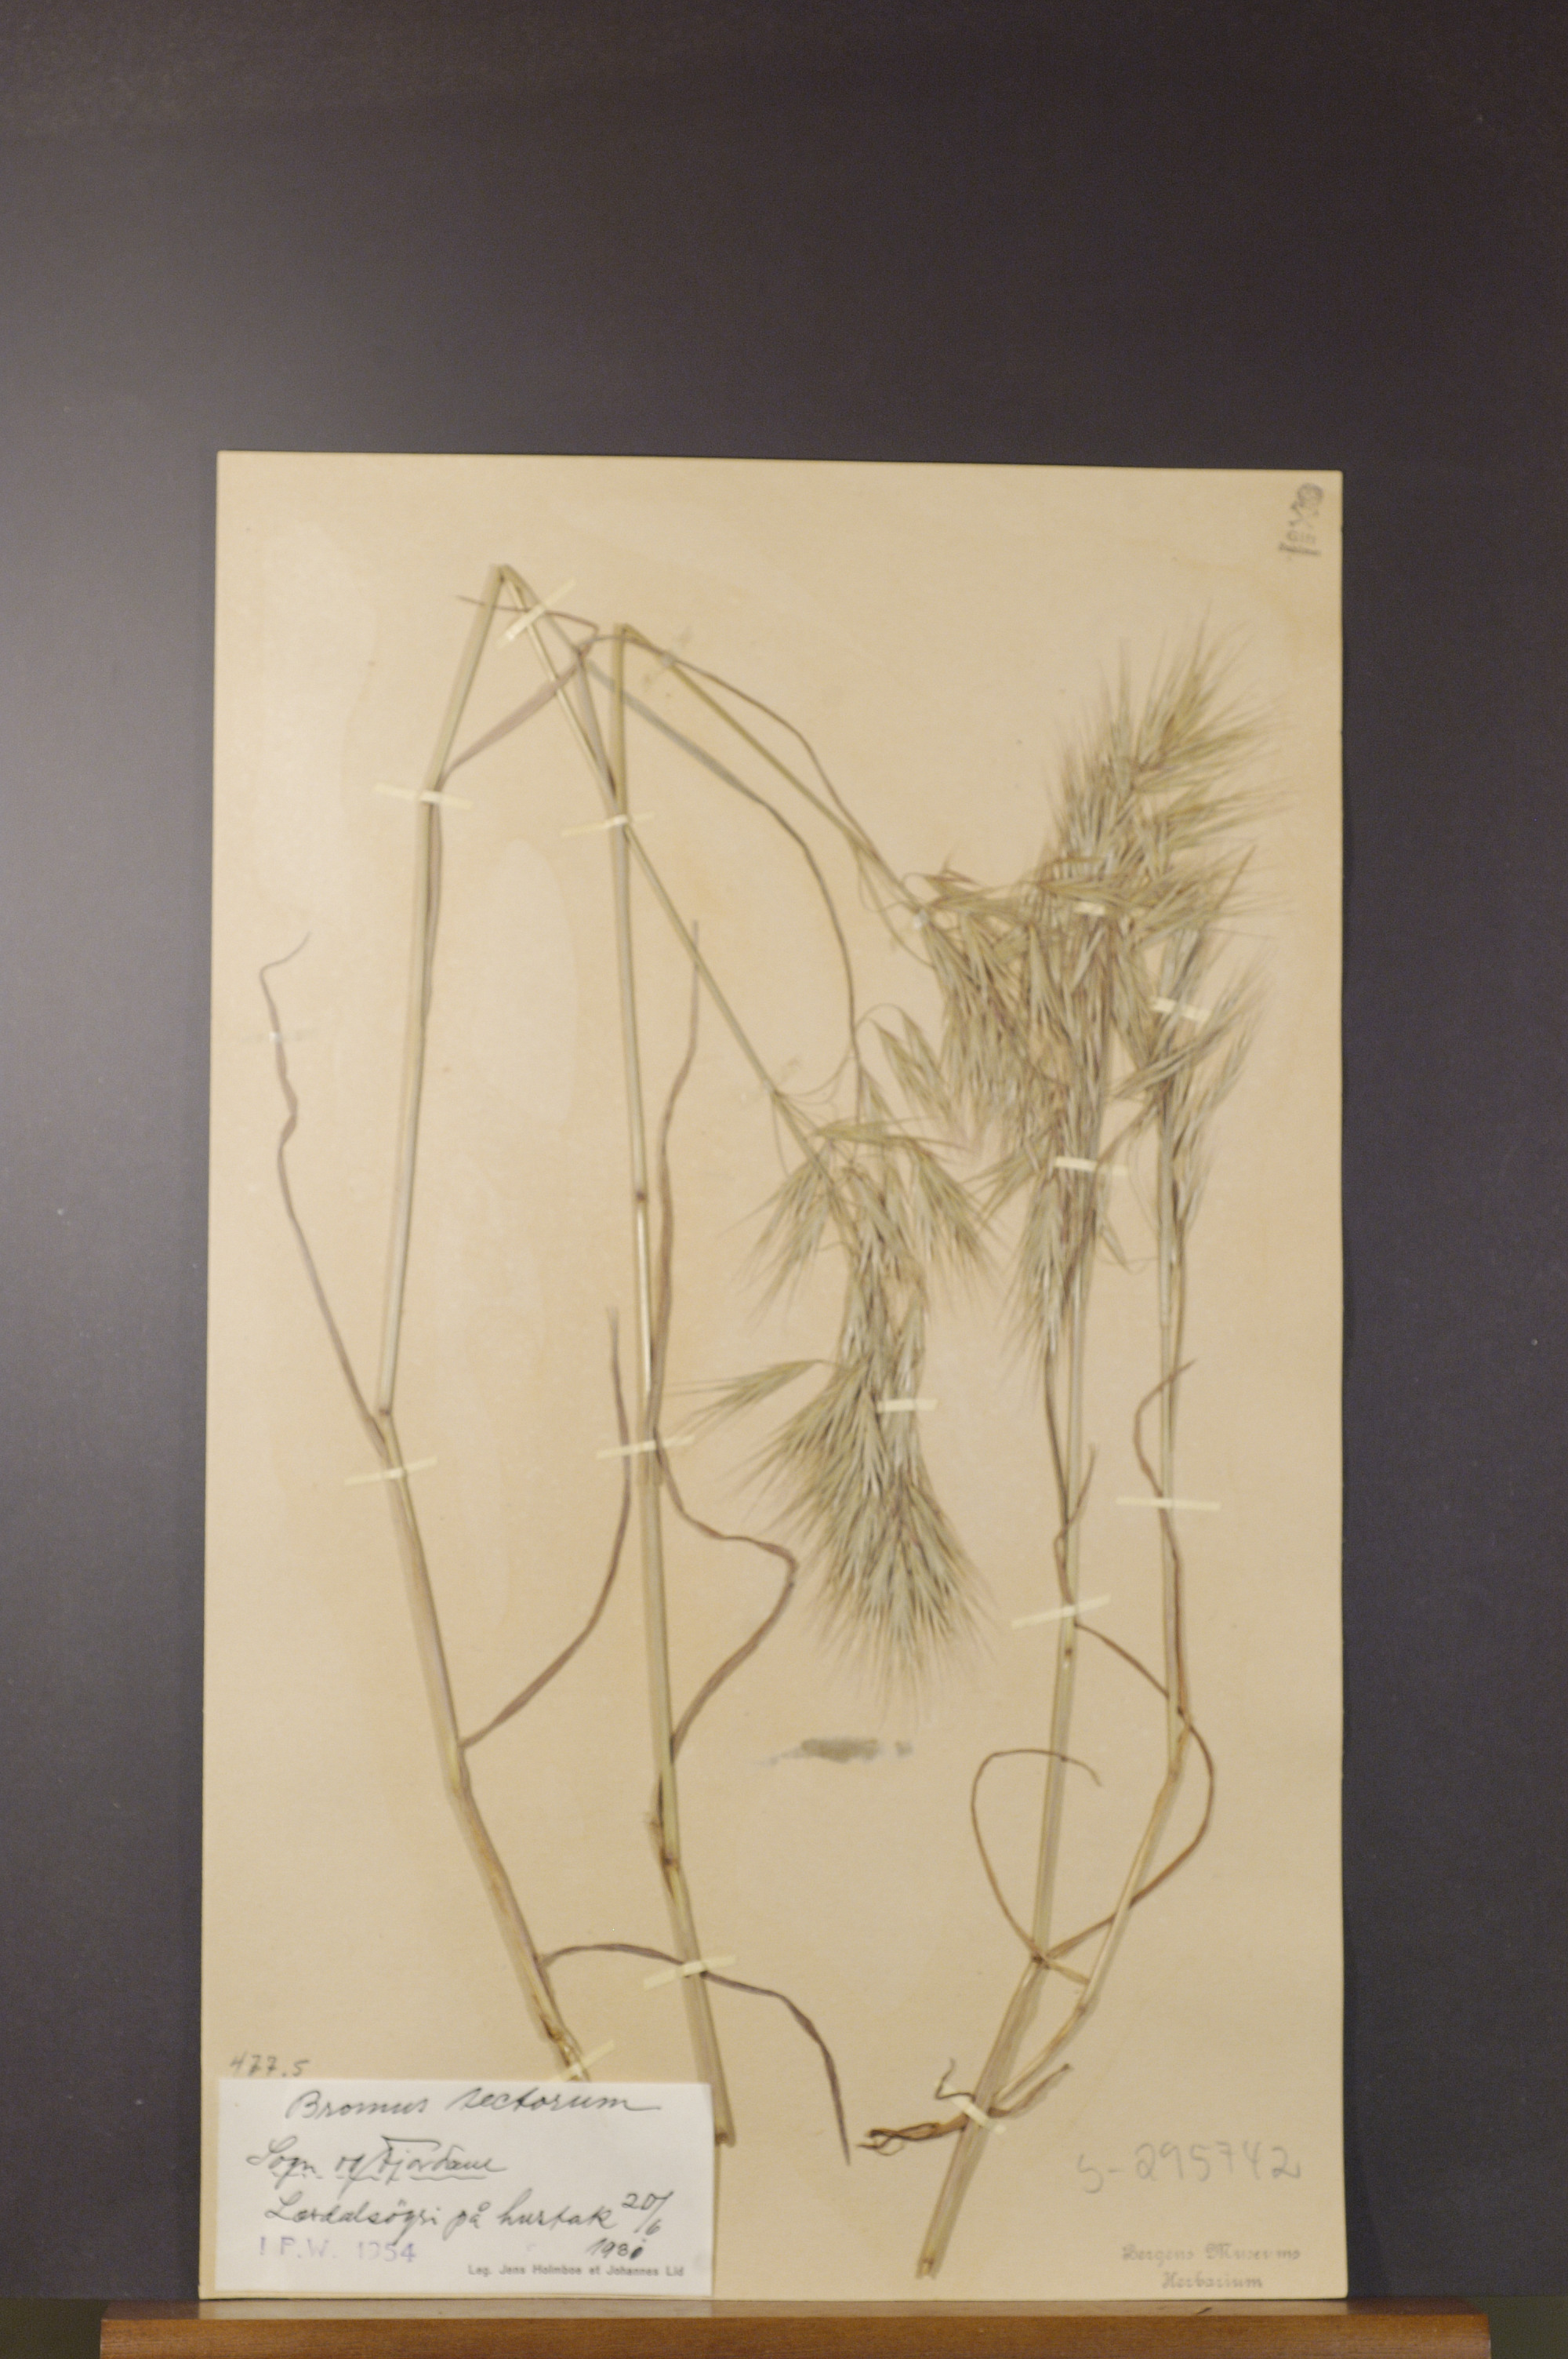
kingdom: Plantae
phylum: Tracheophyta
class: Liliopsida
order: Poales
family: Poaceae
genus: Bromus
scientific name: Bromus tectorum
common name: Cheatgrass
